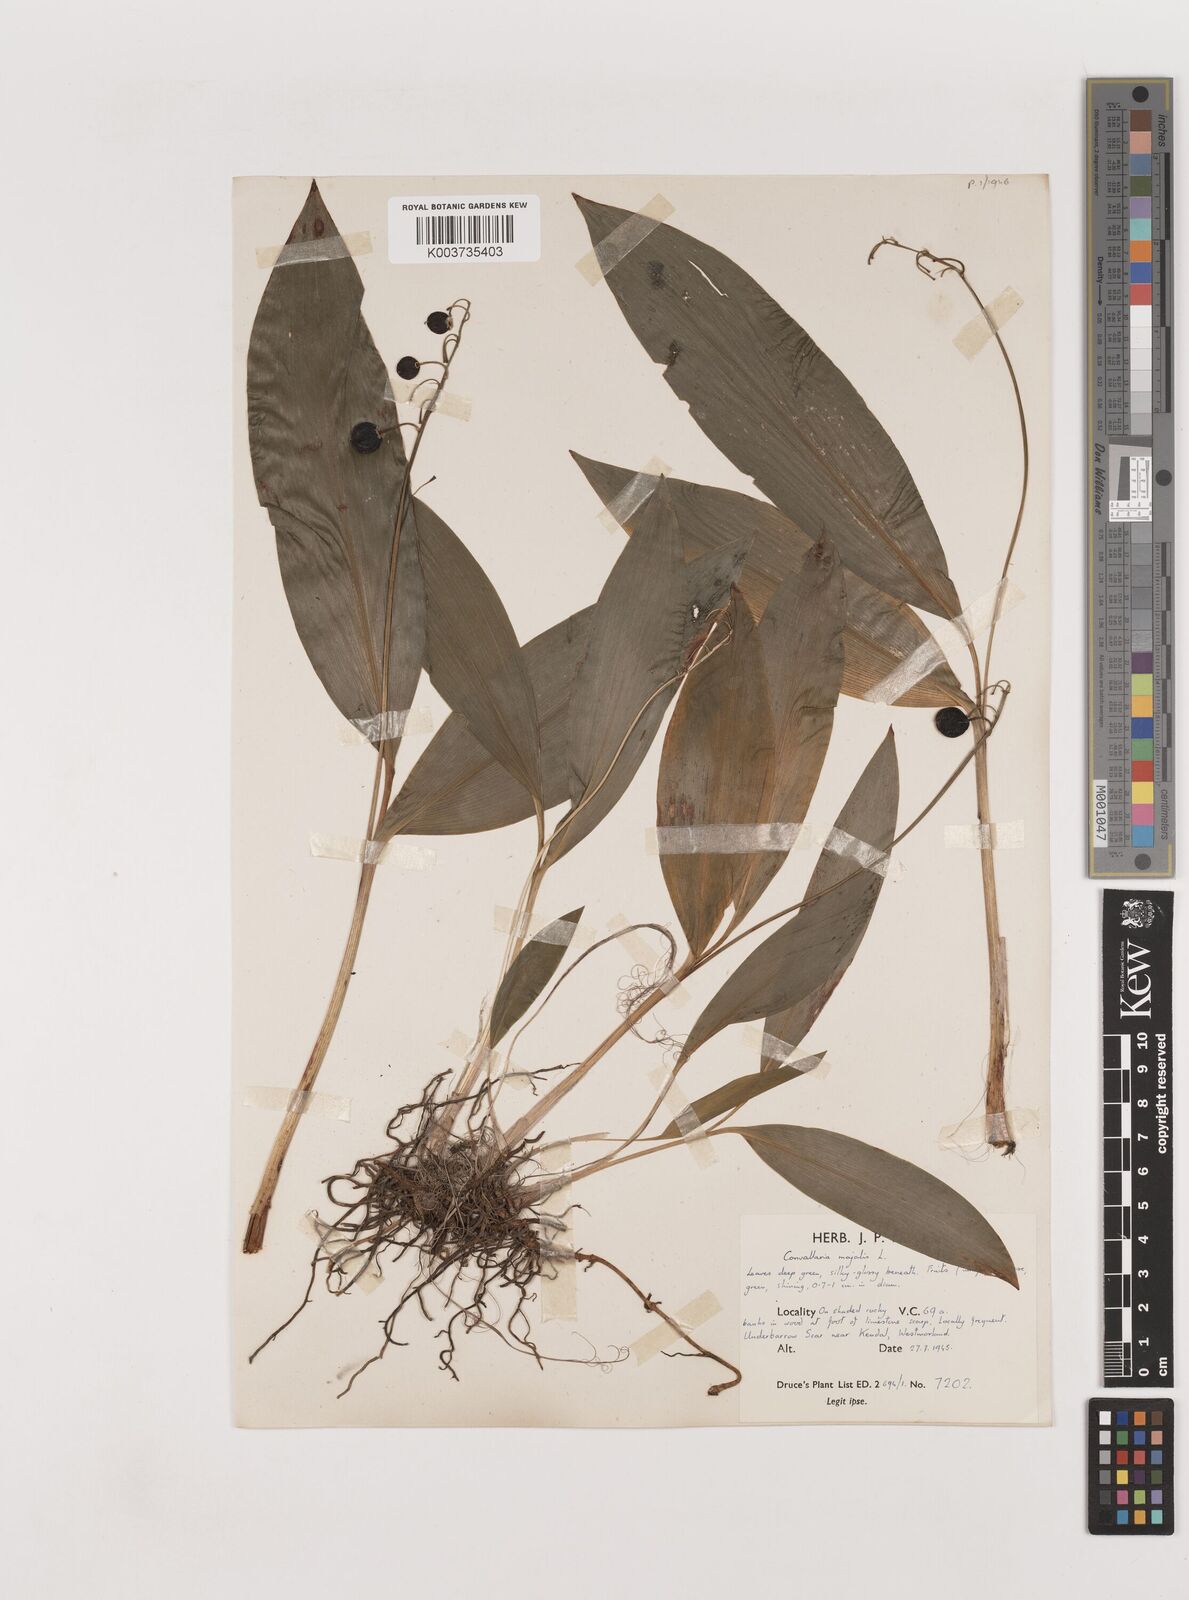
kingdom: Plantae
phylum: Tracheophyta
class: Liliopsida
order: Asparagales
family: Asparagaceae
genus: Convallaria
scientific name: Convallaria majalis
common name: Lily-of-the-valley
